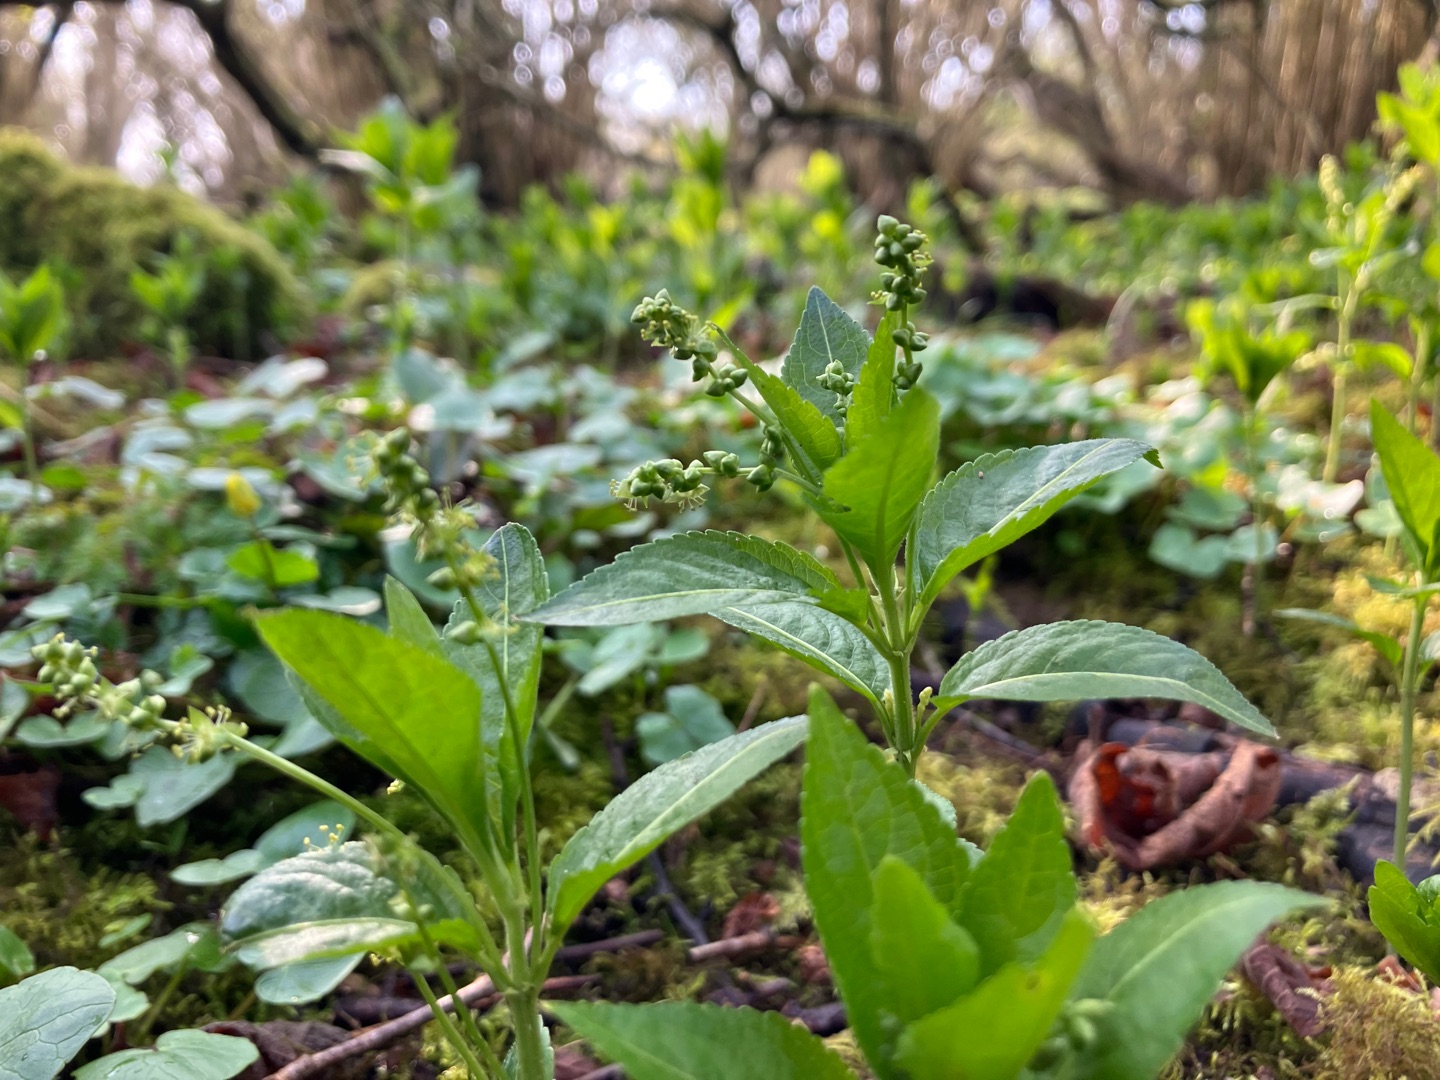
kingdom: Plantae
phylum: Tracheophyta
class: Magnoliopsida
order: Malpighiales
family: Euphorbiaceae
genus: Mercurialis
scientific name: Mercurialis perennis
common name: Almindelig bingelurt
